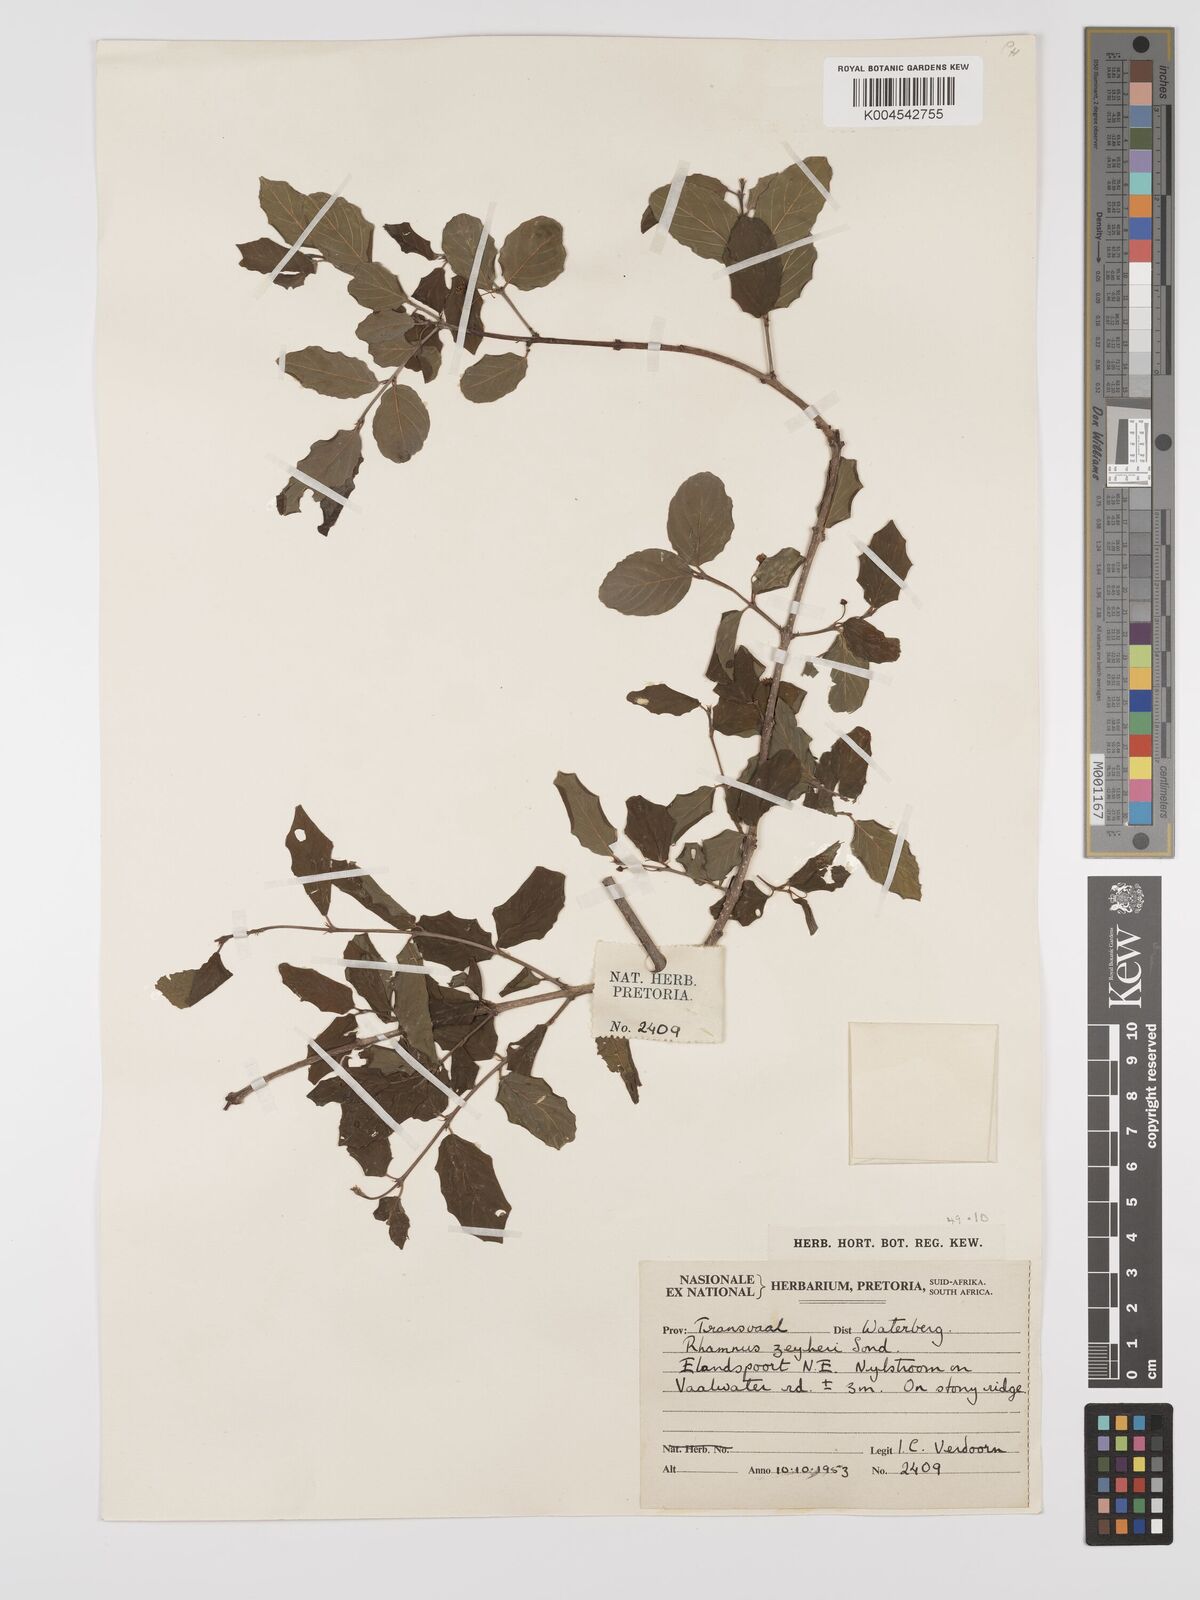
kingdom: Plantae
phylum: Tracheophyta
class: Magnoliopsida
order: Rosales
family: Rhamnaceae
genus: Phyllogeiton
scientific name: Phyllogeiton zeyheri
